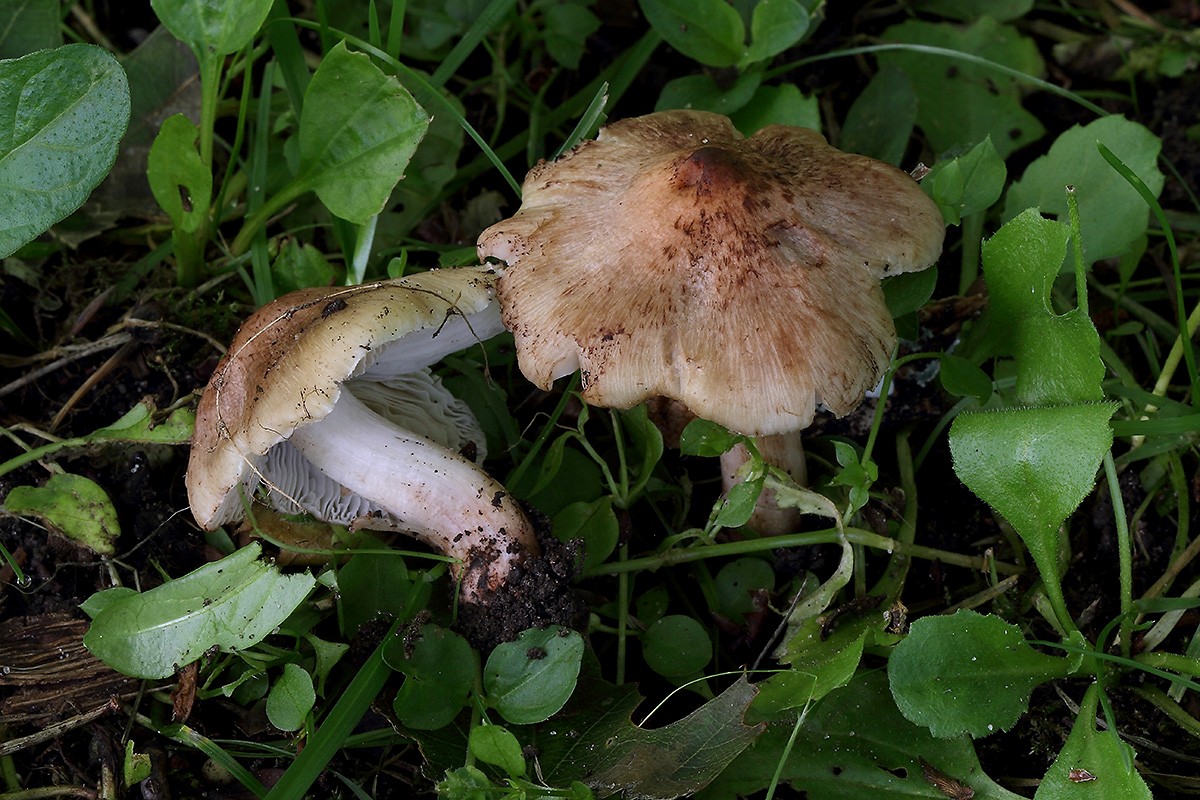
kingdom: Fungi
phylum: Basidiomycota
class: Agaricomycetes
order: Agaricales
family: Inocybaceae
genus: Inosperma
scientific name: Inosperma adaequatum
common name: vinrød trævlhat
